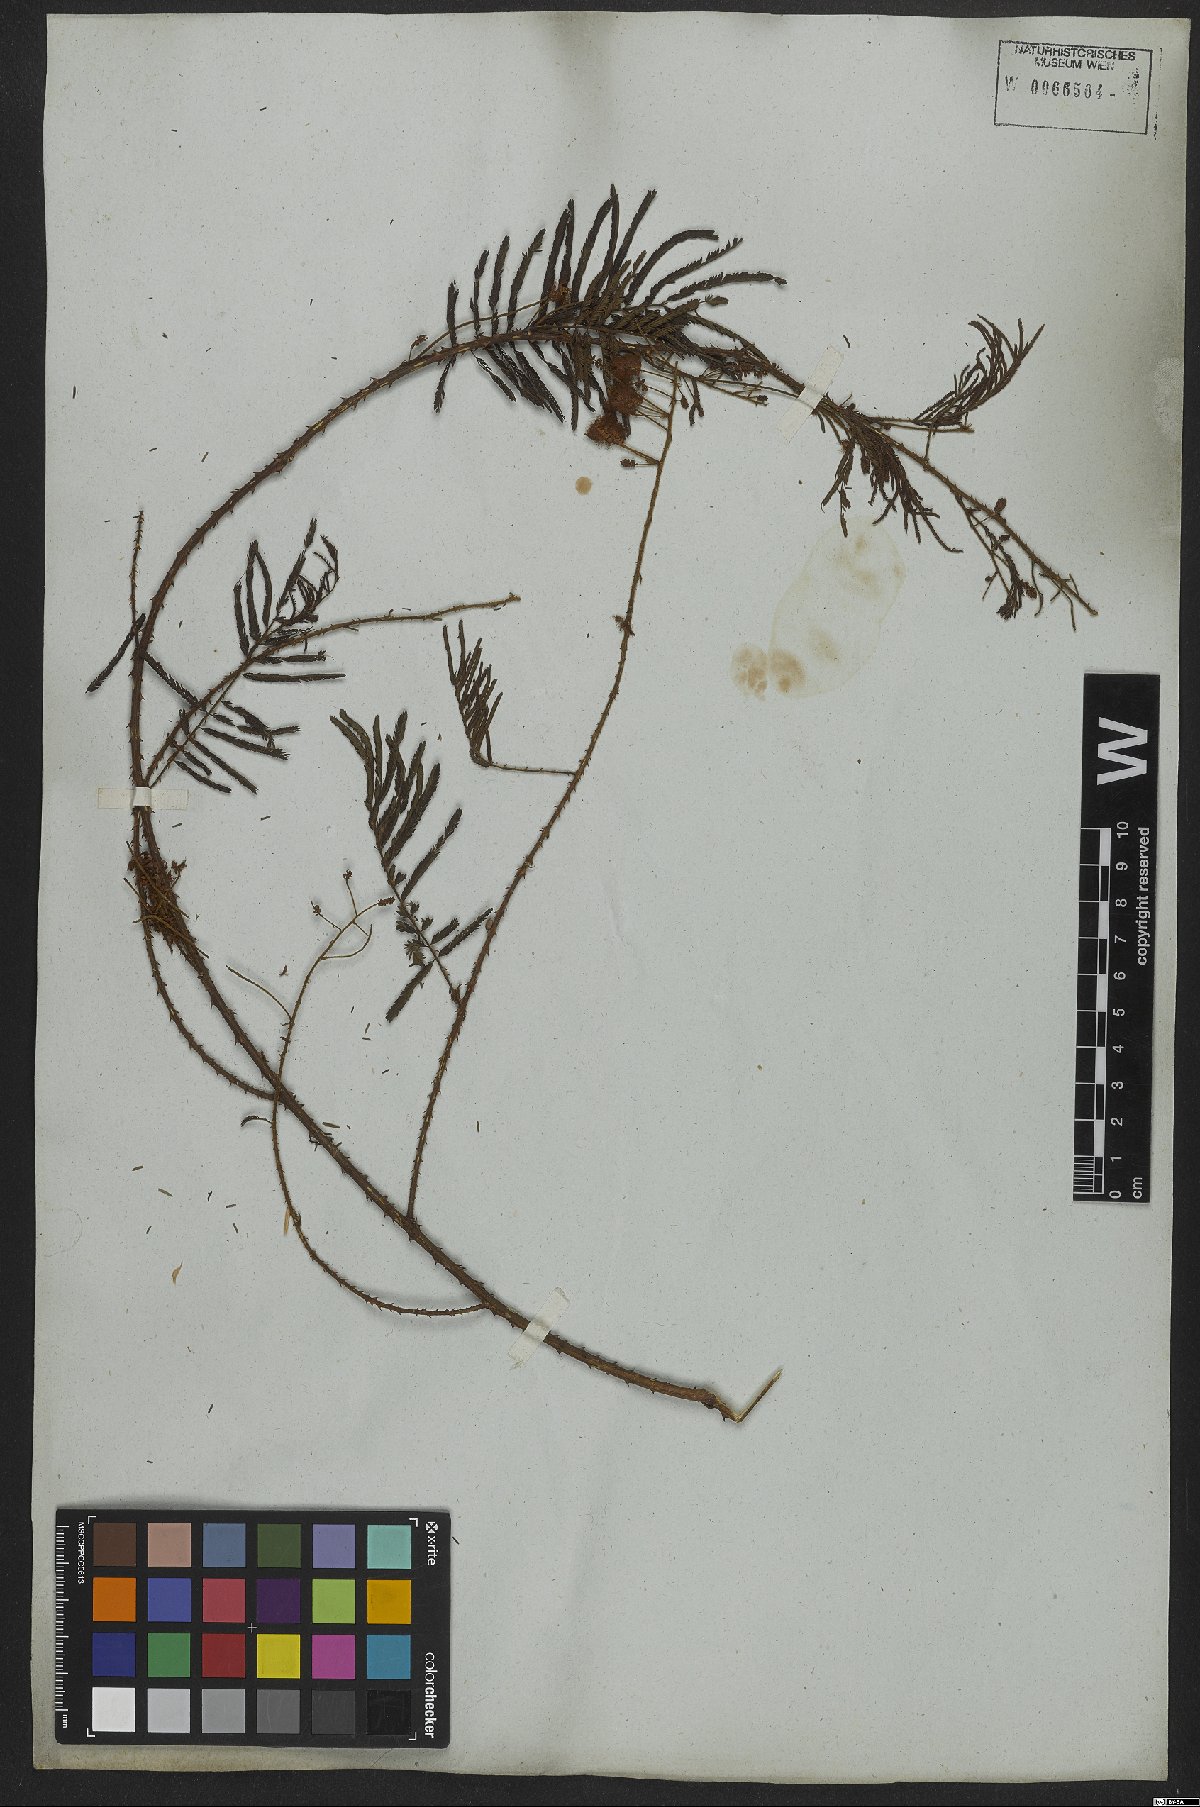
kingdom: Plantae
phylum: Tracheophyta
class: Magnoliopsida
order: Fabales
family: Fabaceae
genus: Senegalia
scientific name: Senegalia lowei
